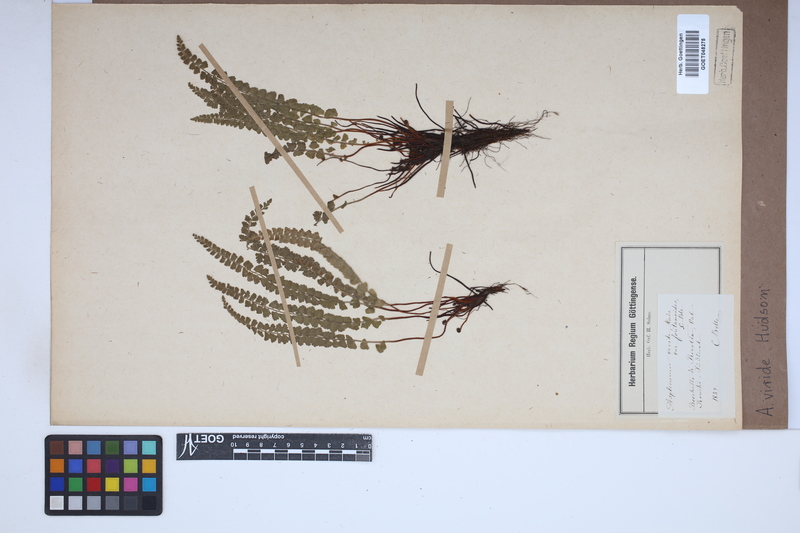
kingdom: Plantae
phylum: Tracheophyta
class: Polypodiopsida
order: Polypodiales
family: Aspleniaceae
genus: Asplenium
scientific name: Asplenium viride
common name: Green spleenwort
